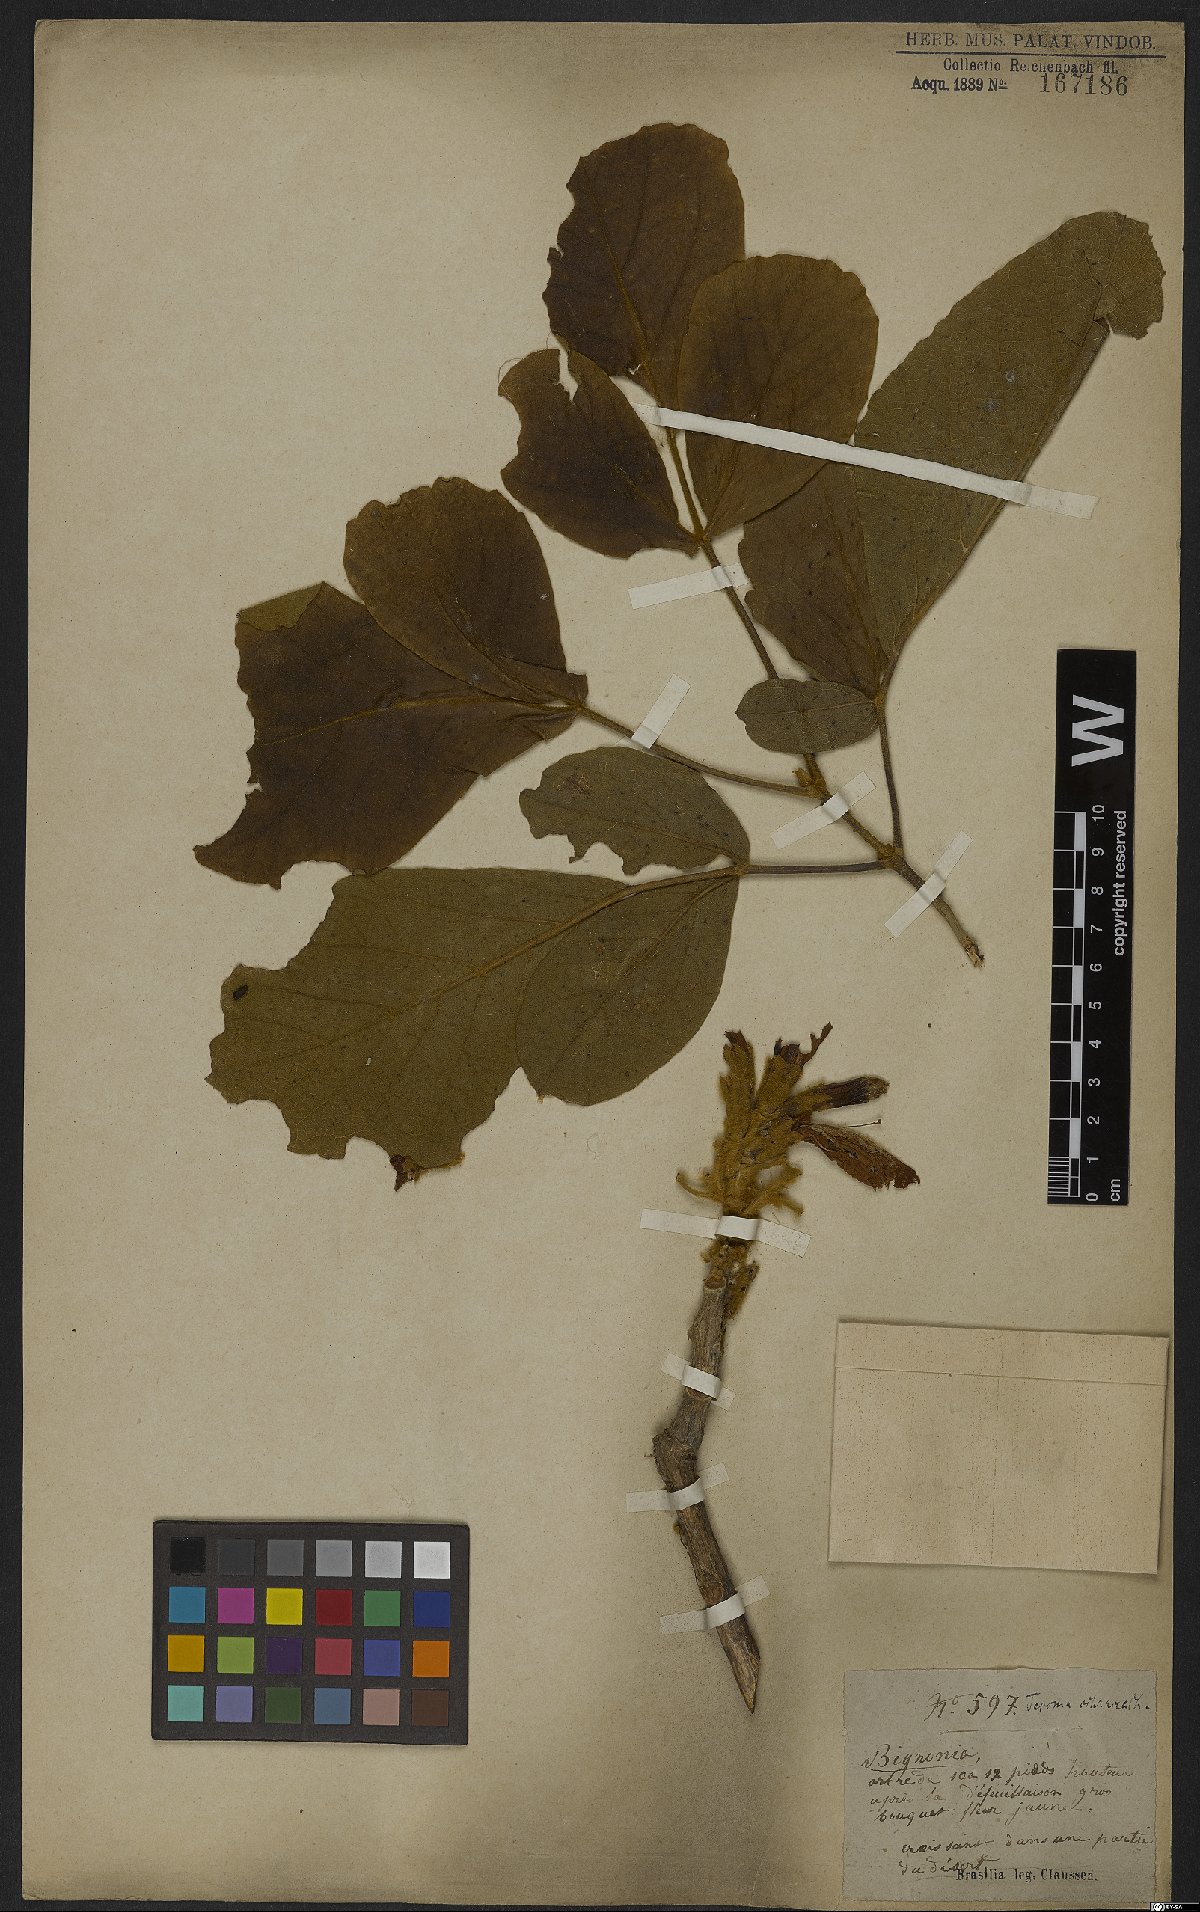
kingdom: Plantae
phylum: Tracheophyta
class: Magnoliopsida
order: Lamiales
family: Bignoniaceae
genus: Handroanthus
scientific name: Handroanthus ochraceus
